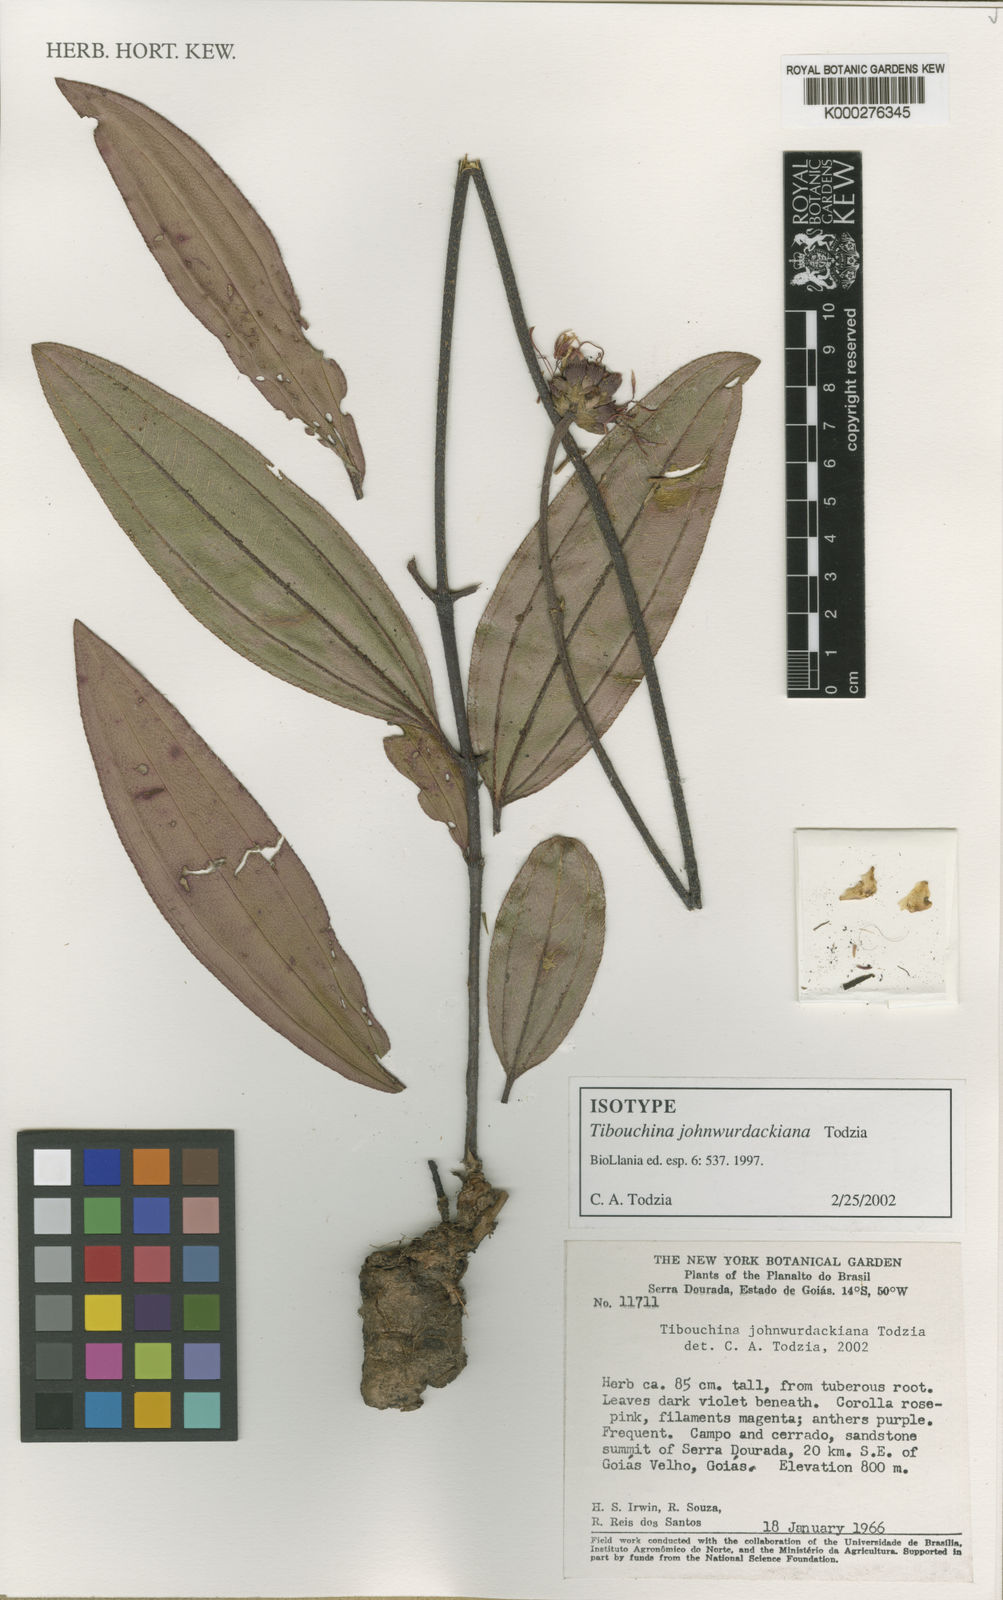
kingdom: Plantae
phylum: Tracheophyta
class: Magnoliopsida
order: Myrtales
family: Melastomataceae
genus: Tibouchina
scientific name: Tibouchina johnwurdackiana
